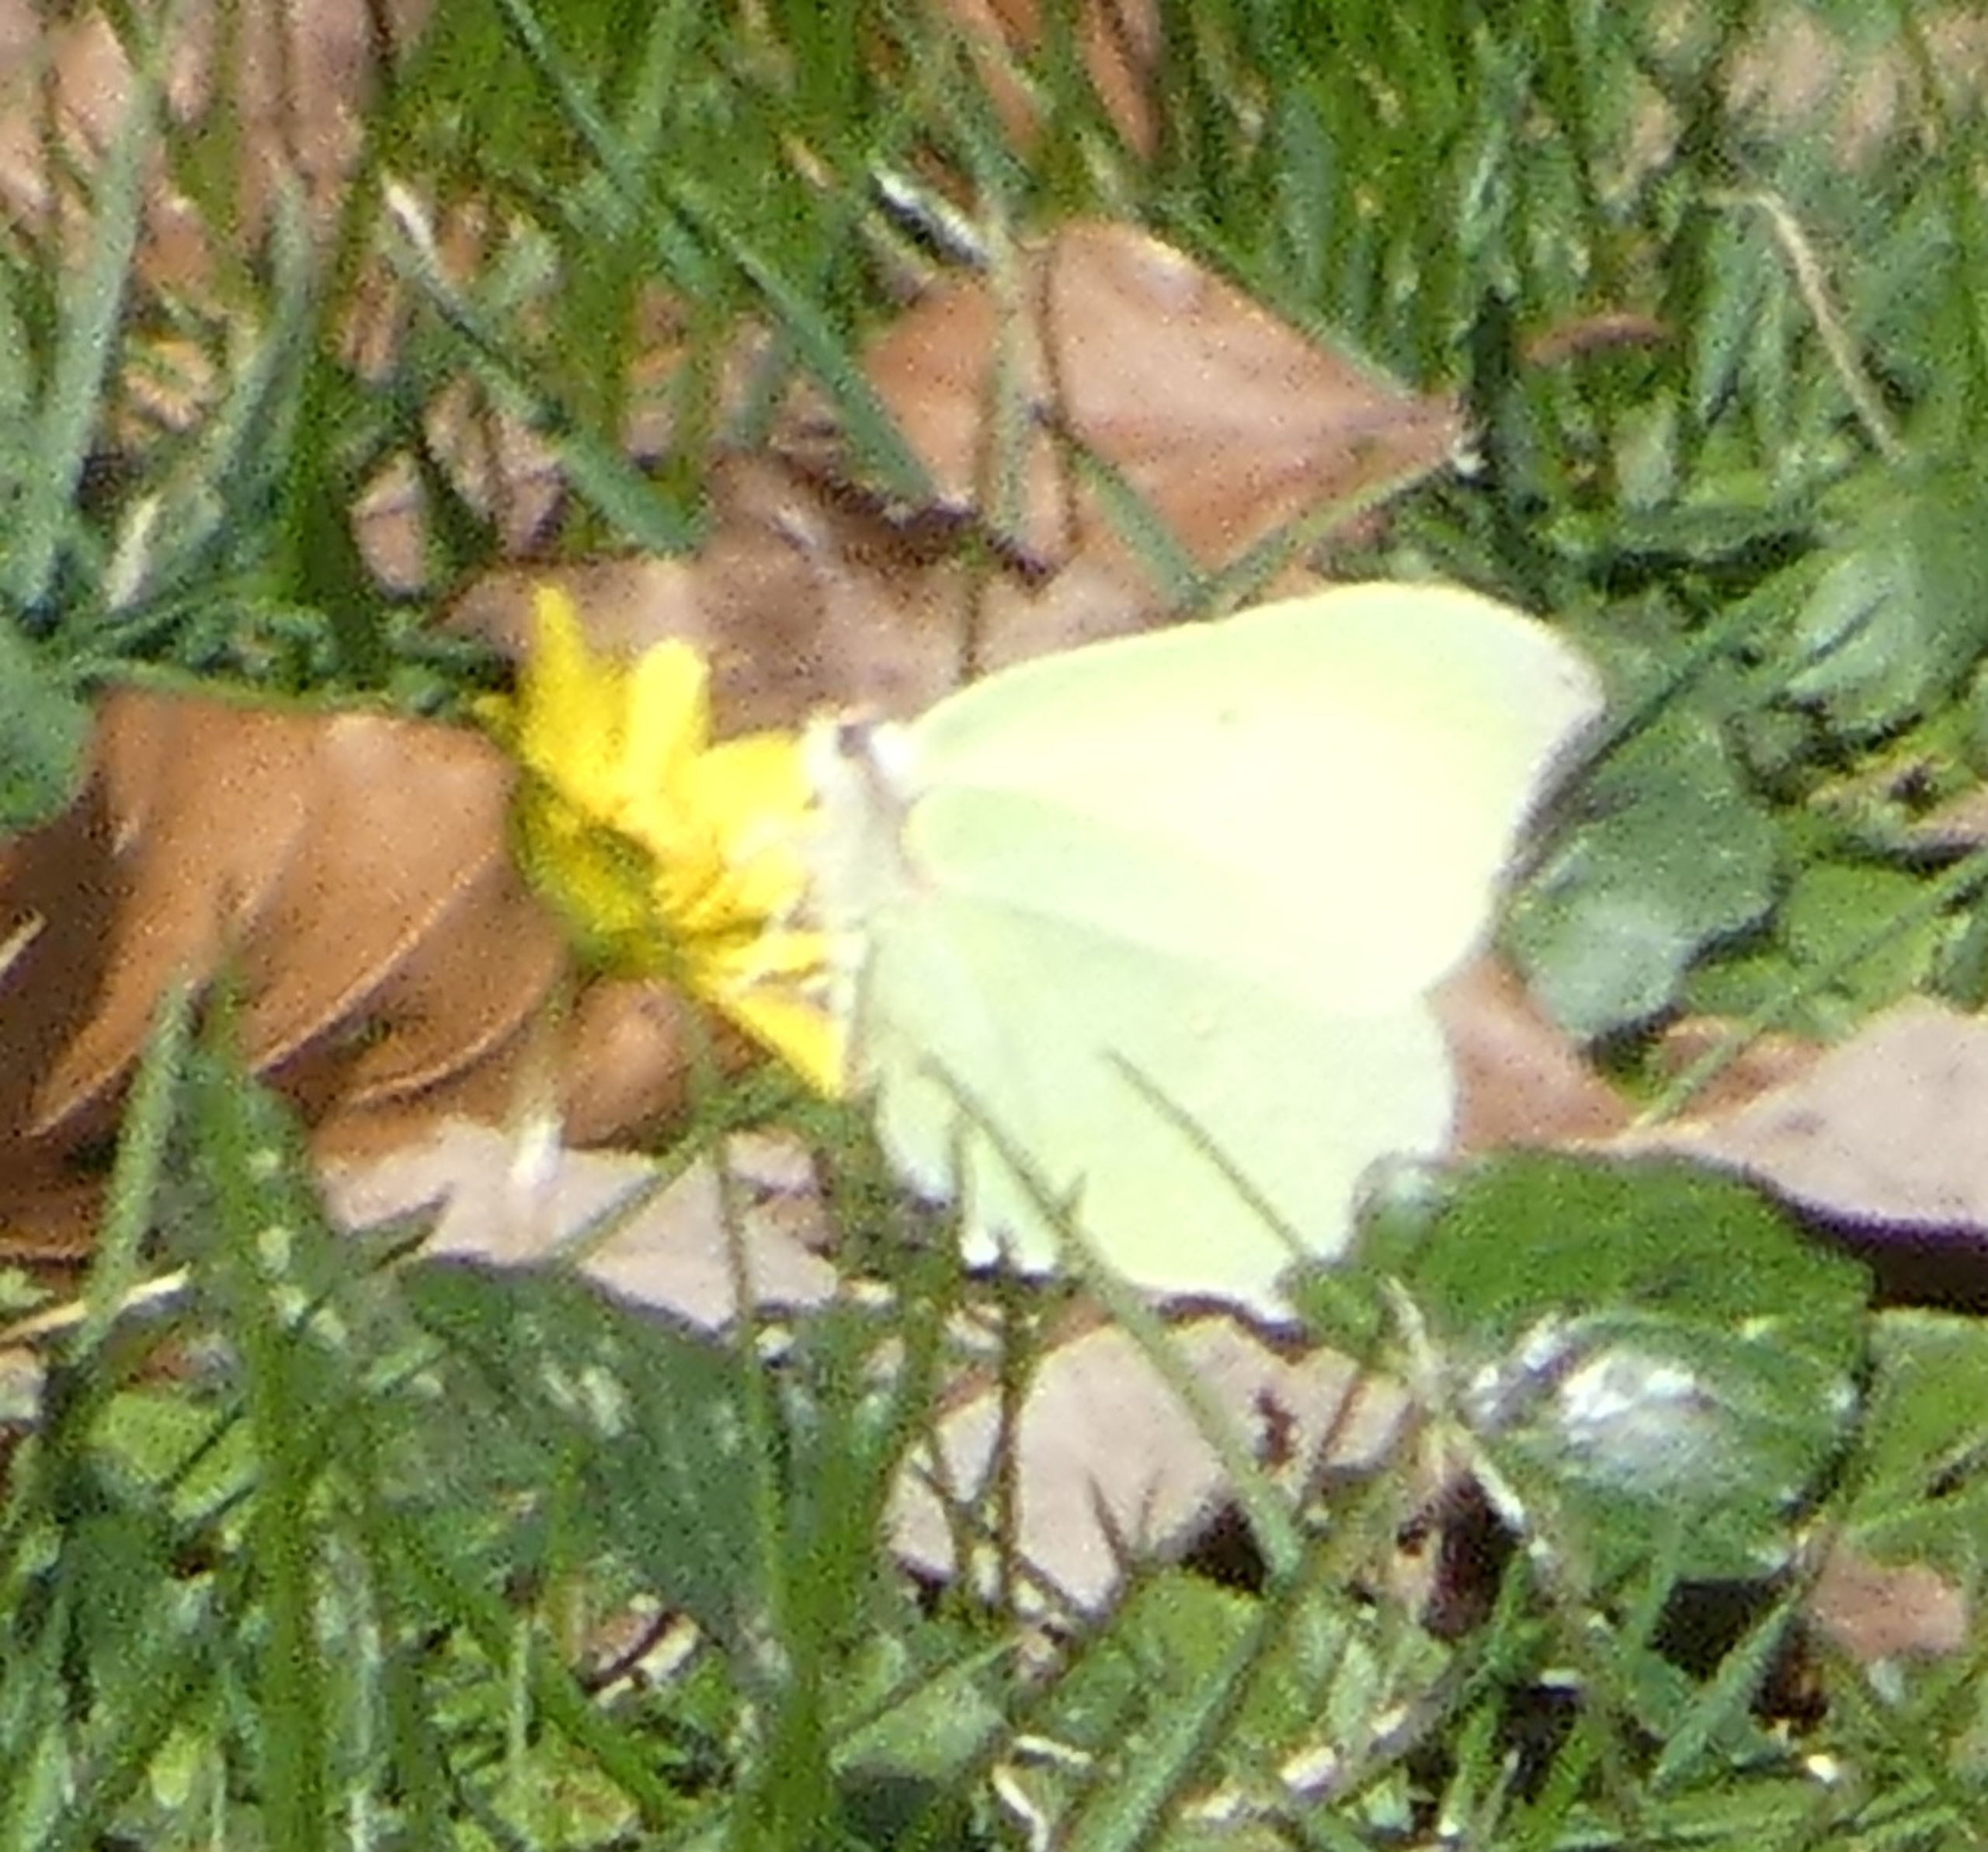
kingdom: Animalia
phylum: Arthropoda
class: Insecta
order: Lepidoptera
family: Pieridae
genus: Gonepteryx
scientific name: Gonepteryx rhamni
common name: Citronsommerfugl
